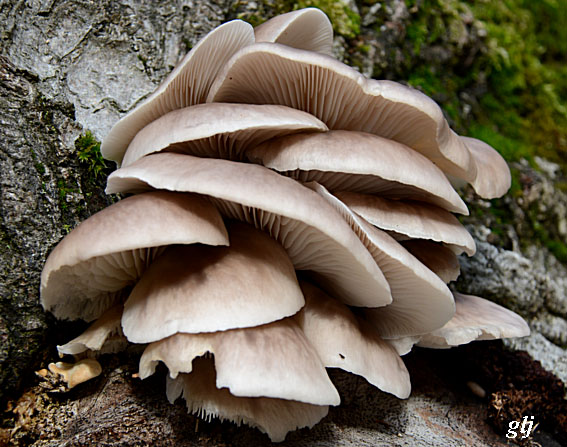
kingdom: Fungi
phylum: Basidiomycota
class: Agaricomycetes
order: Agaricales
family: Pleurotaceae
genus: Pleurotus
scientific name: Pleurotus ostreatus
